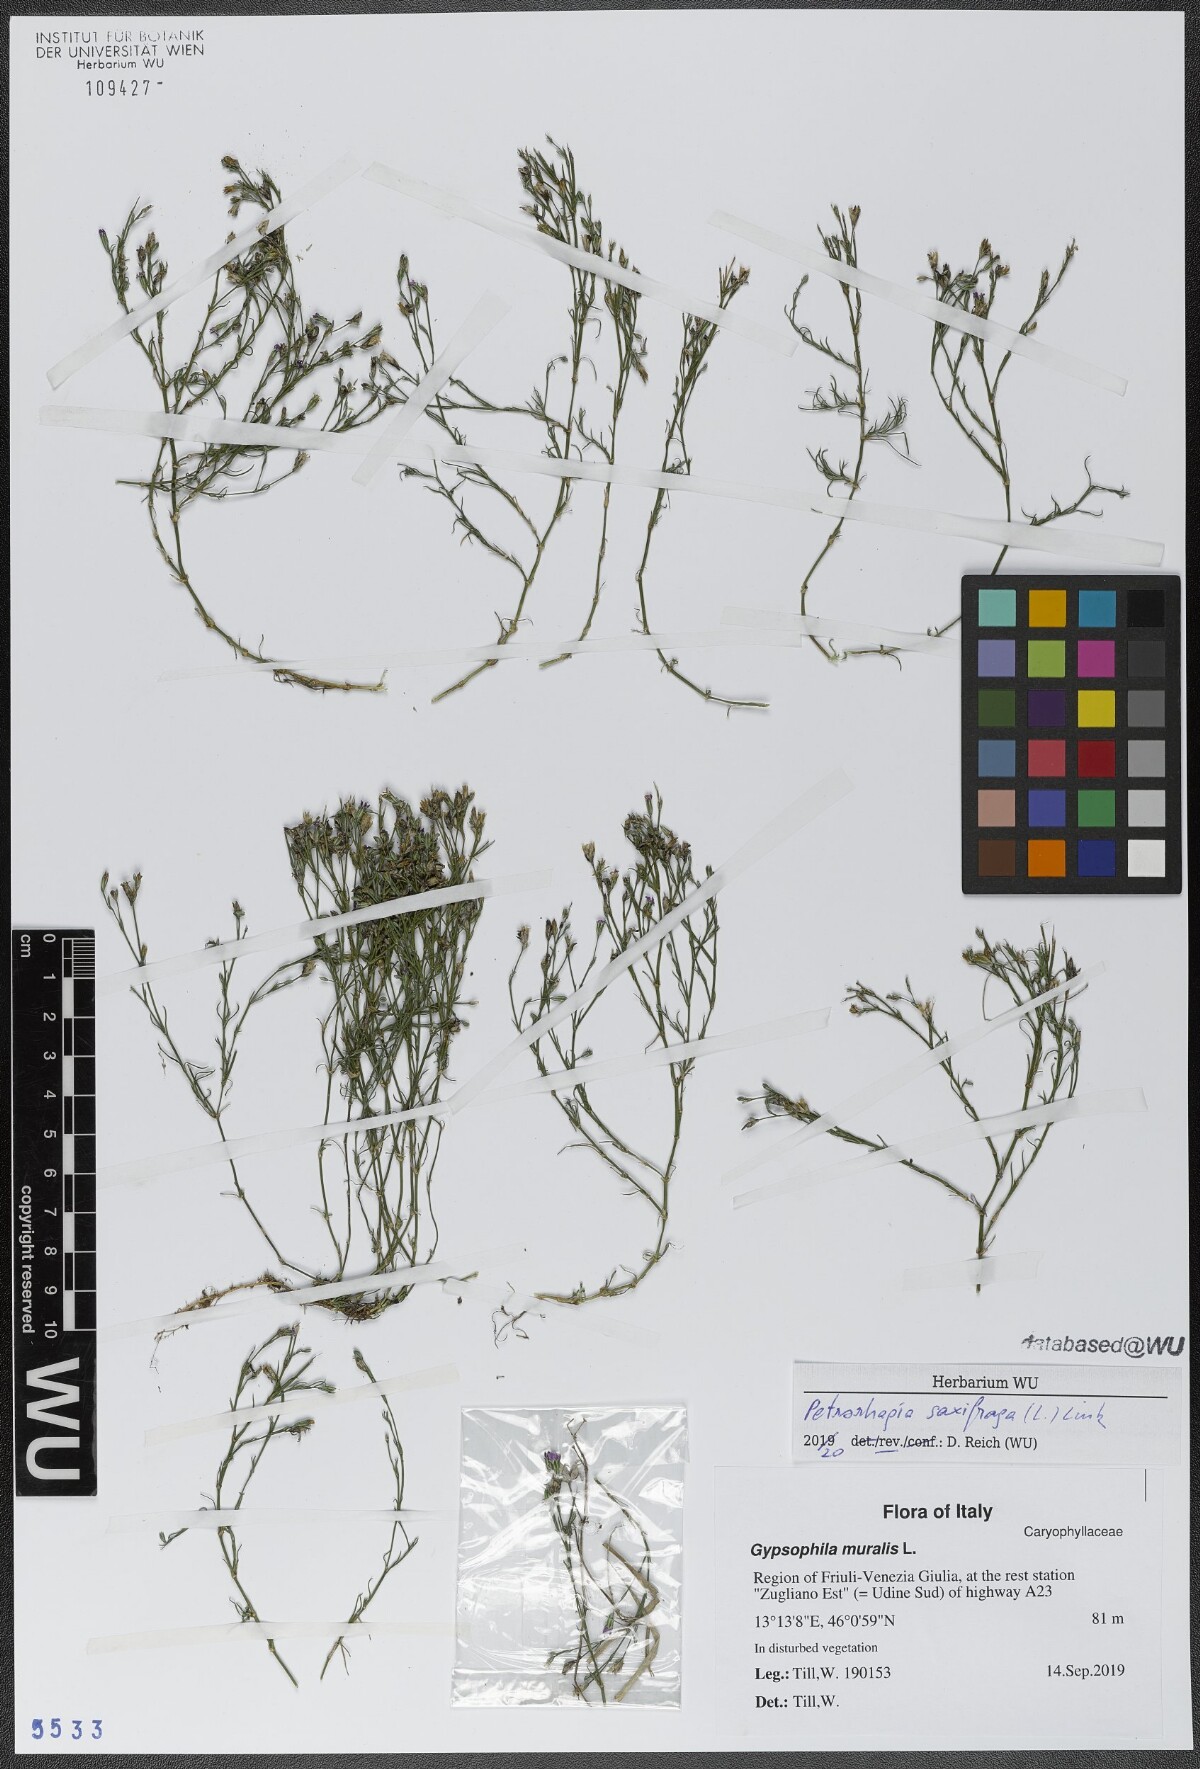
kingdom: Plantae
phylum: Tracheophyta
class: Magnoliopsida
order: Caryophyllales
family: Caryophyllaceae
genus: Petrorhagia
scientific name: Petrorhagia saxifraga
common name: Tunicflower
